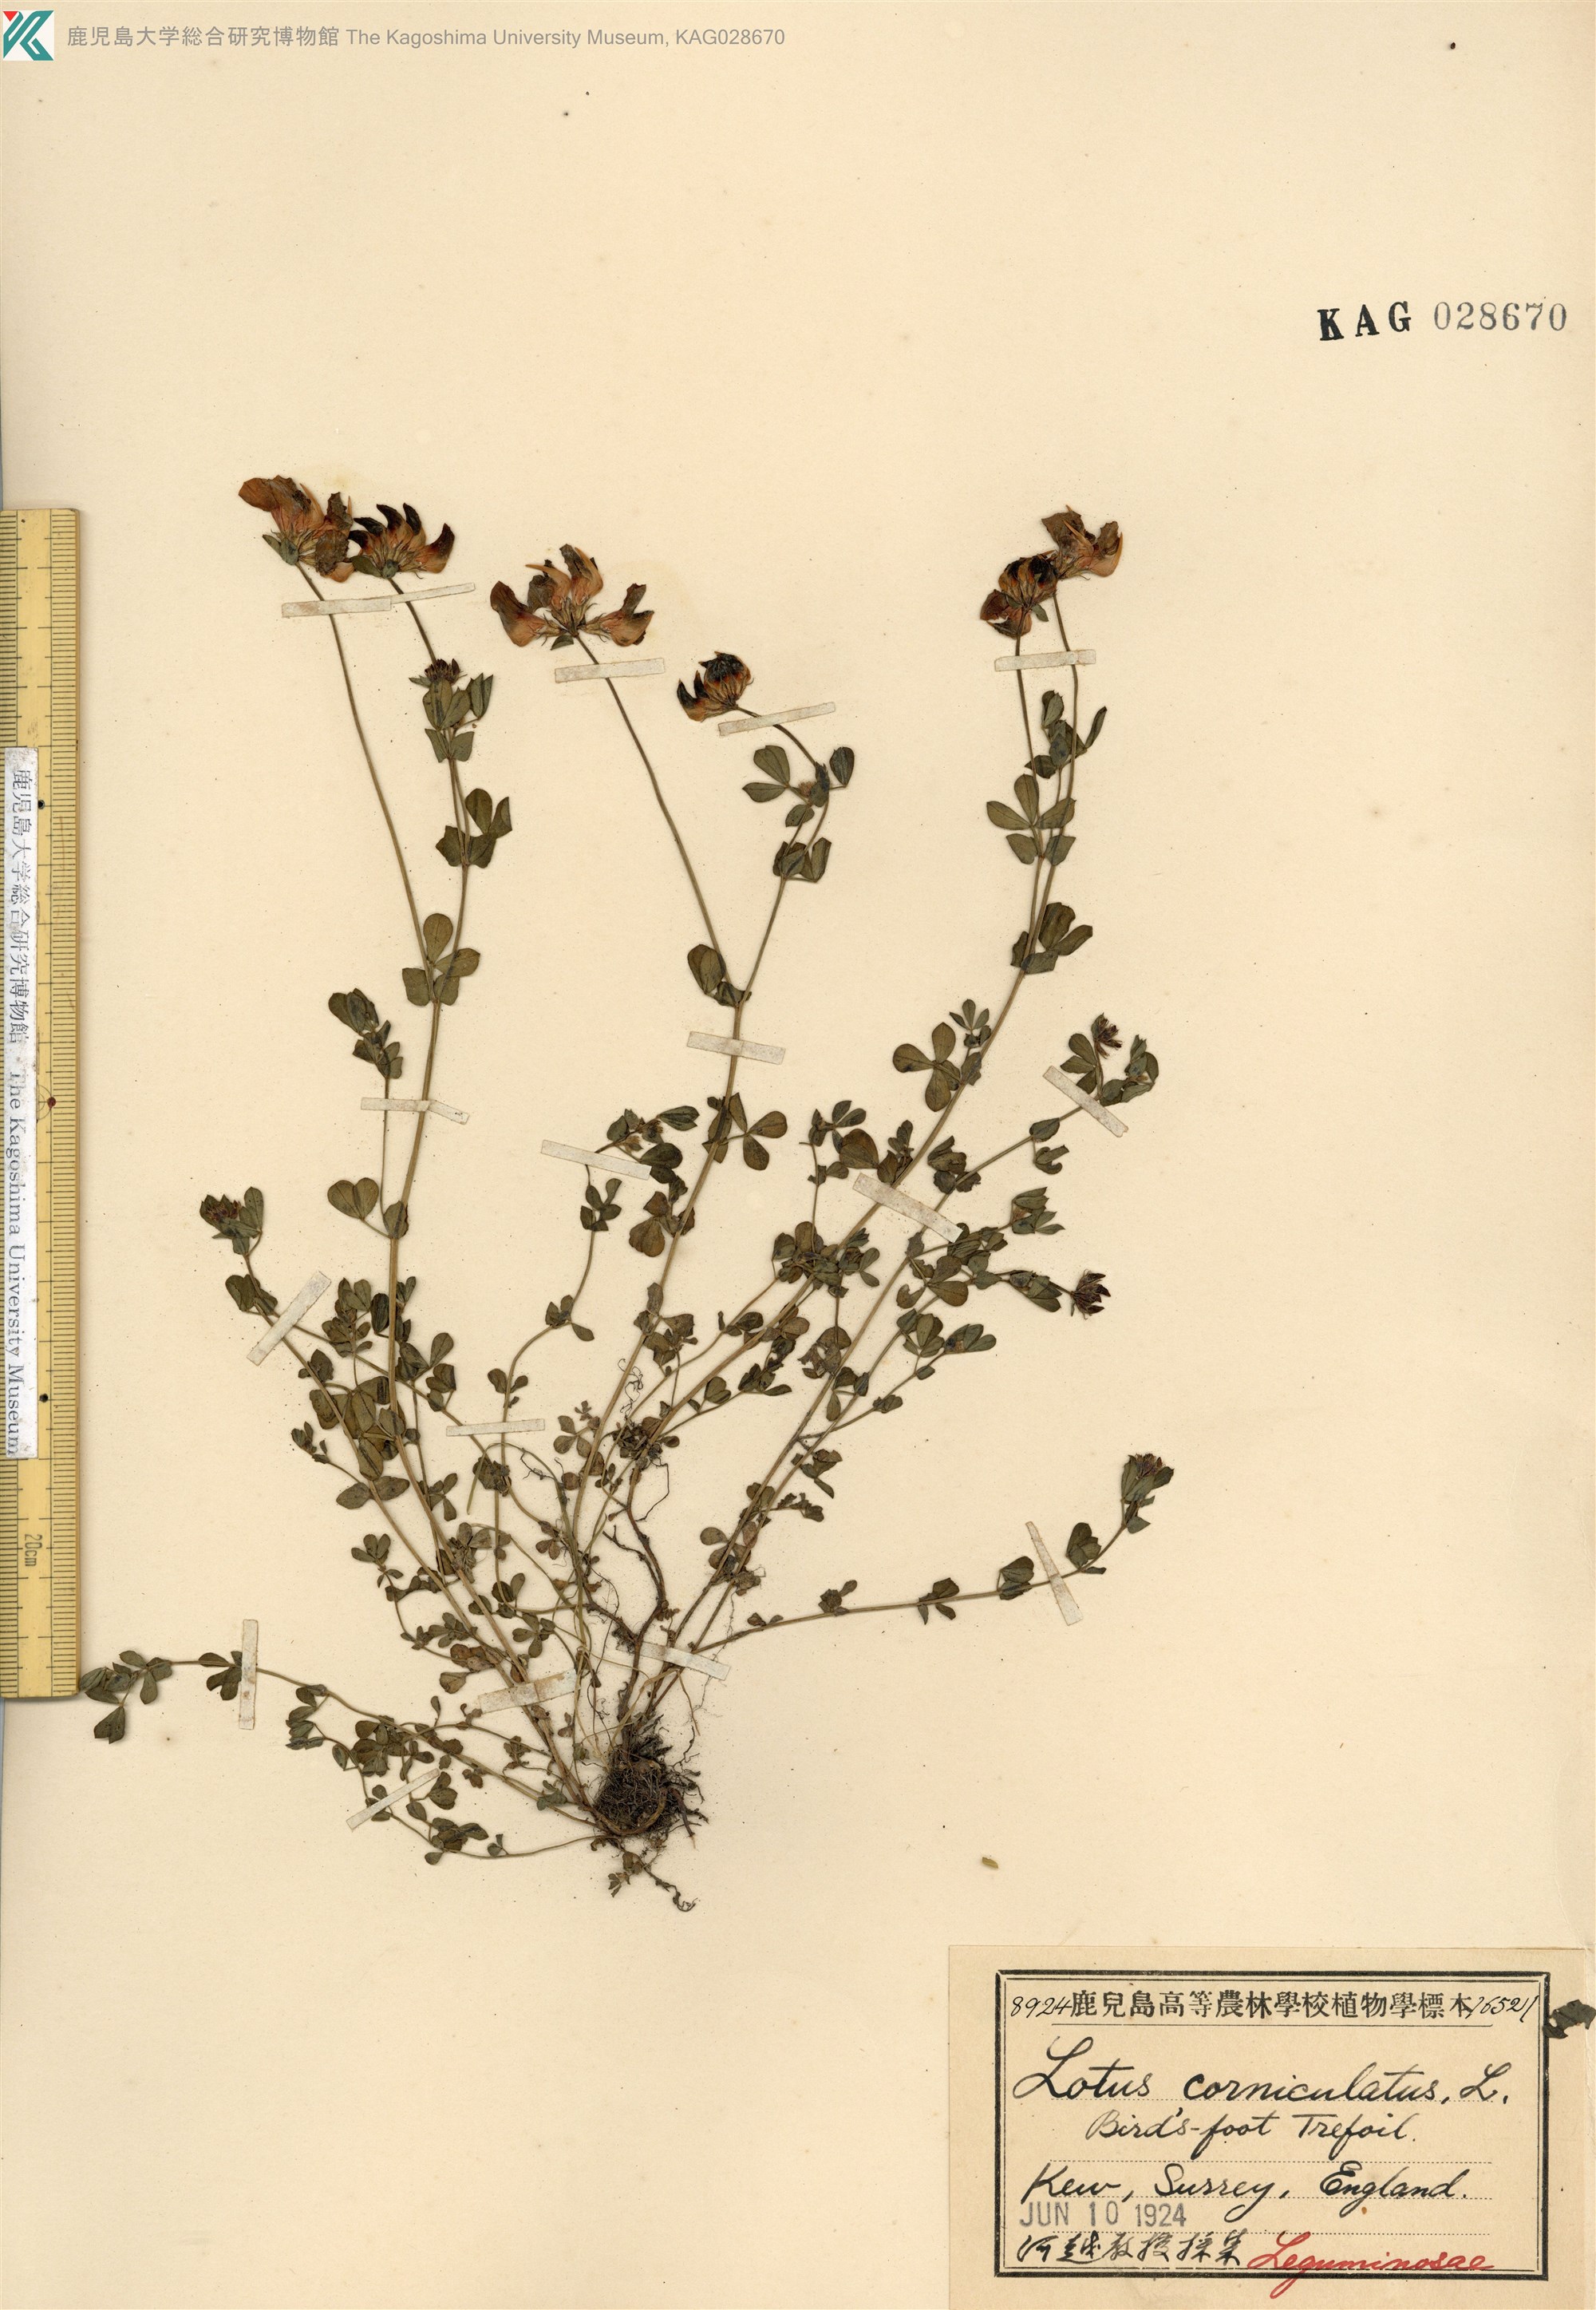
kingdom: Plantae
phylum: Tracheophyta
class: Magnoliopsida
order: Fabales
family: Fabaceae
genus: Lotus
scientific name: Lotus corniculatus
